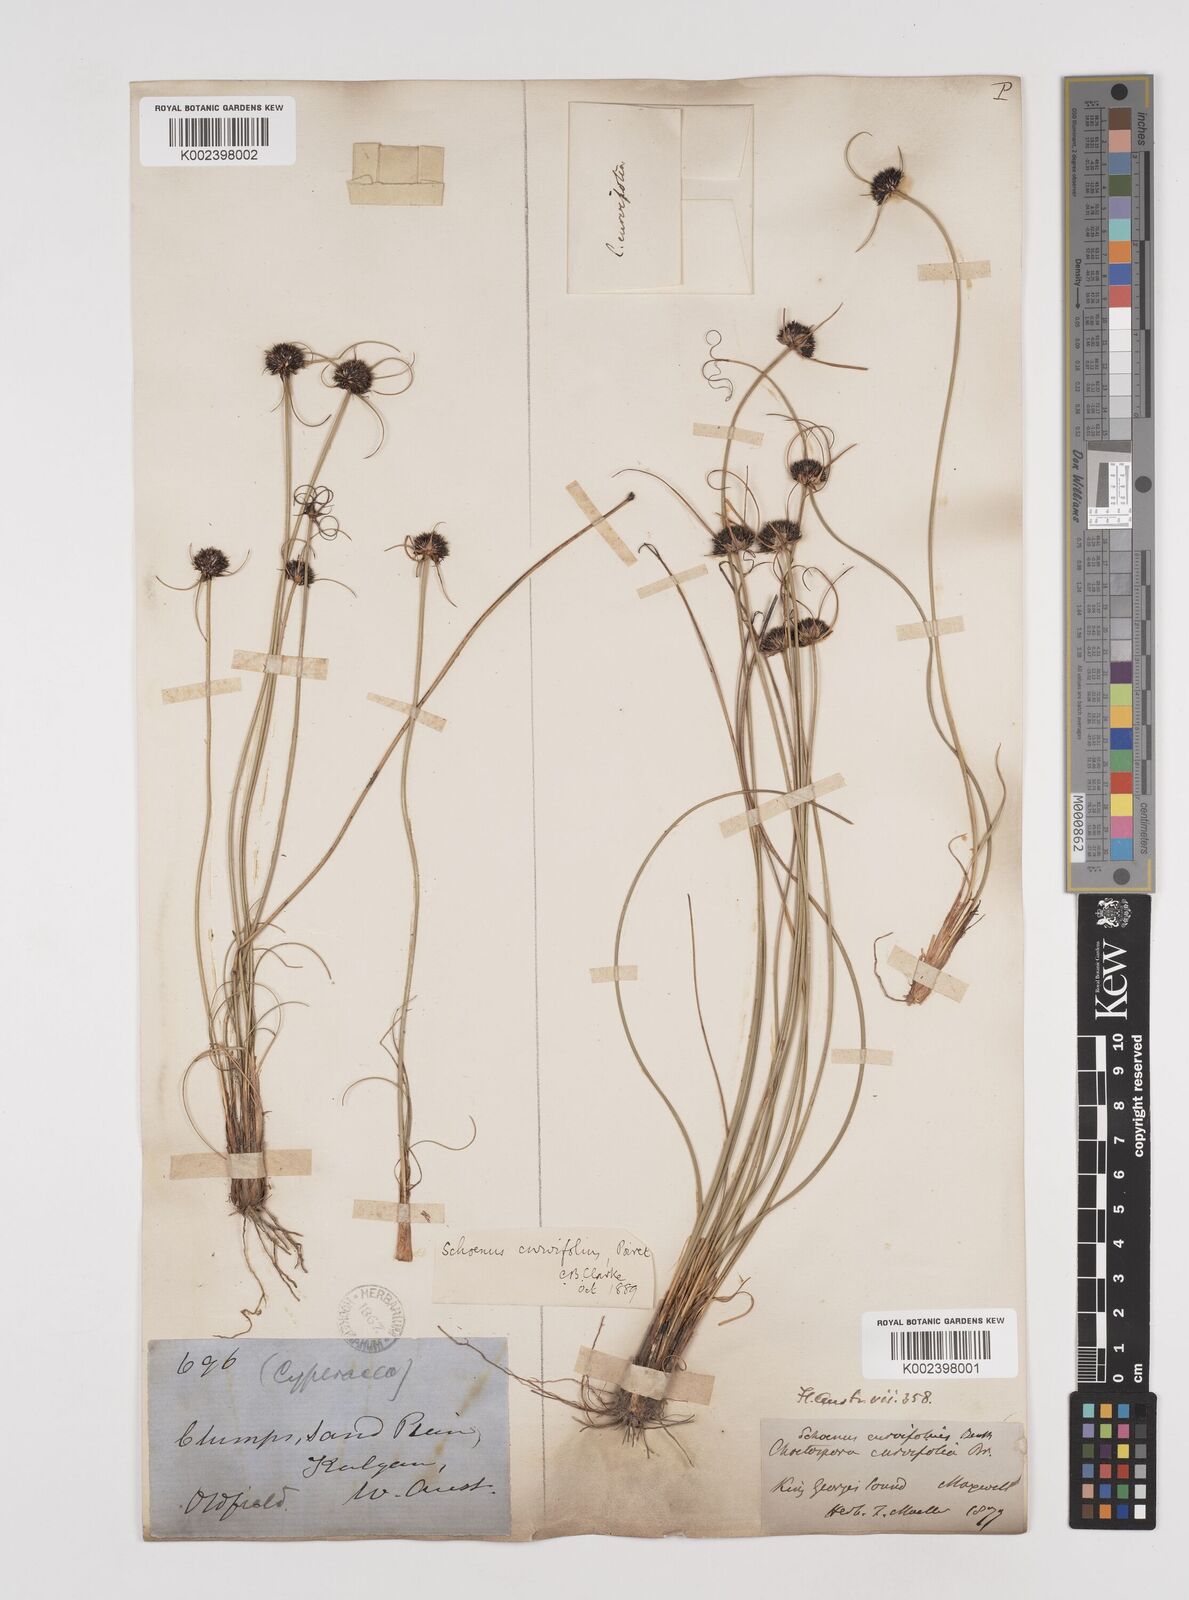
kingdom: Plantae
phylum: Tracheophyta
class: Liliopsida
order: Poales
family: Cyperaceae
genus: Schoenus
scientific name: Schoenus curvifolius
